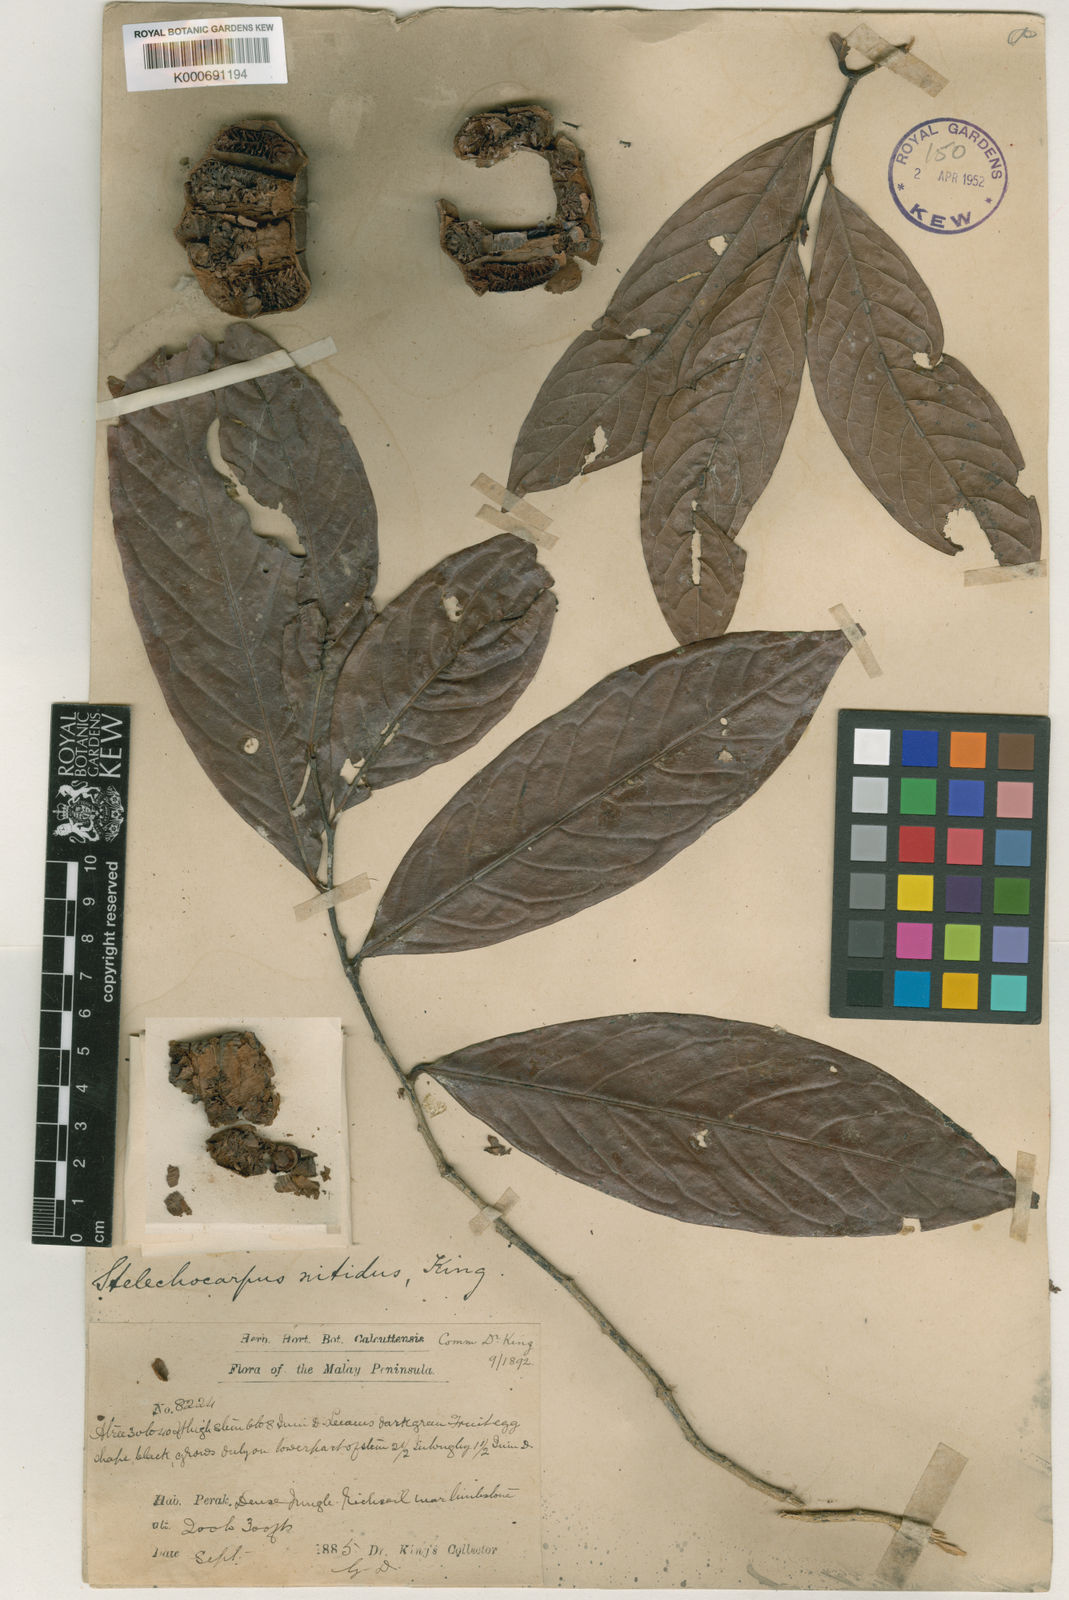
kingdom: Plantae
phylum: Tracheophyta
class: Magnoliopsida
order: Magnoliales
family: Annonaceae
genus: Stelechocarpus
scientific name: Stelechocarpus cauliflorus
